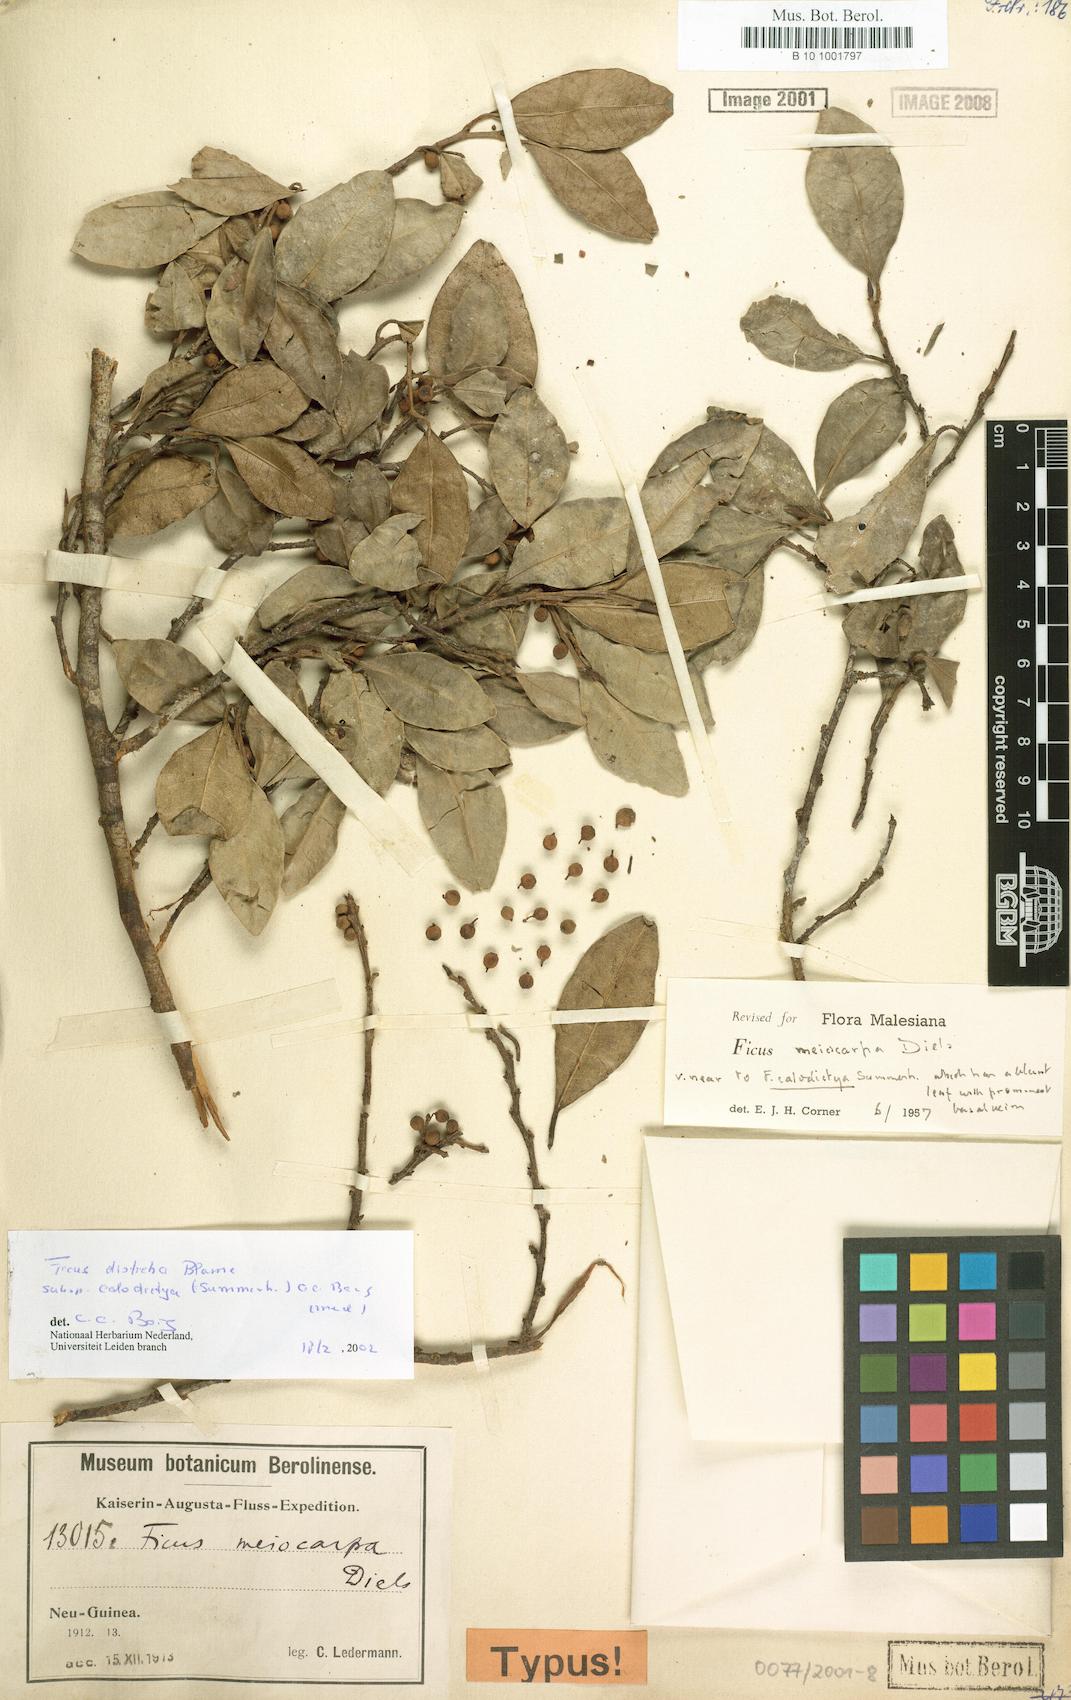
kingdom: Plantae
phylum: Tracheophyta
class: Magnoliopsida
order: Rosales
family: Moraceae
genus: Ficus
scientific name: Ficus phatnophylla
